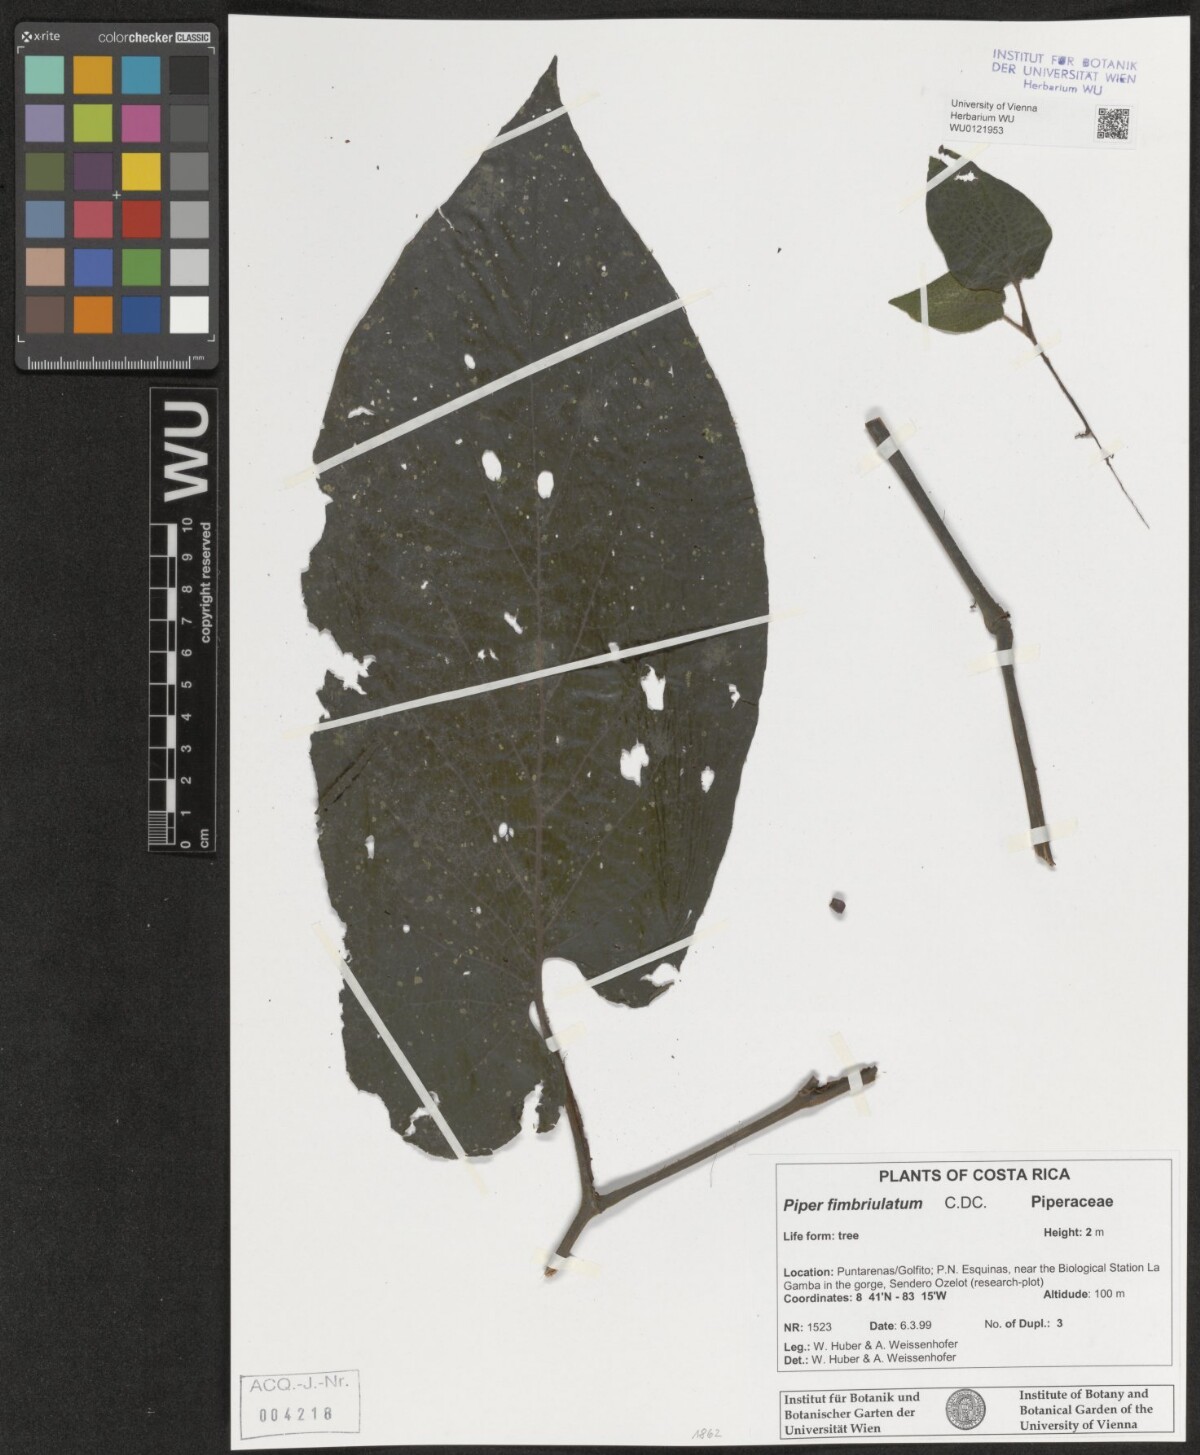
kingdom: Plantae
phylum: Tracheophyta
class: Magnoliopsida
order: Piperales
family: Piperaceae
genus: Piper
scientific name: Piper fimbriulatum
